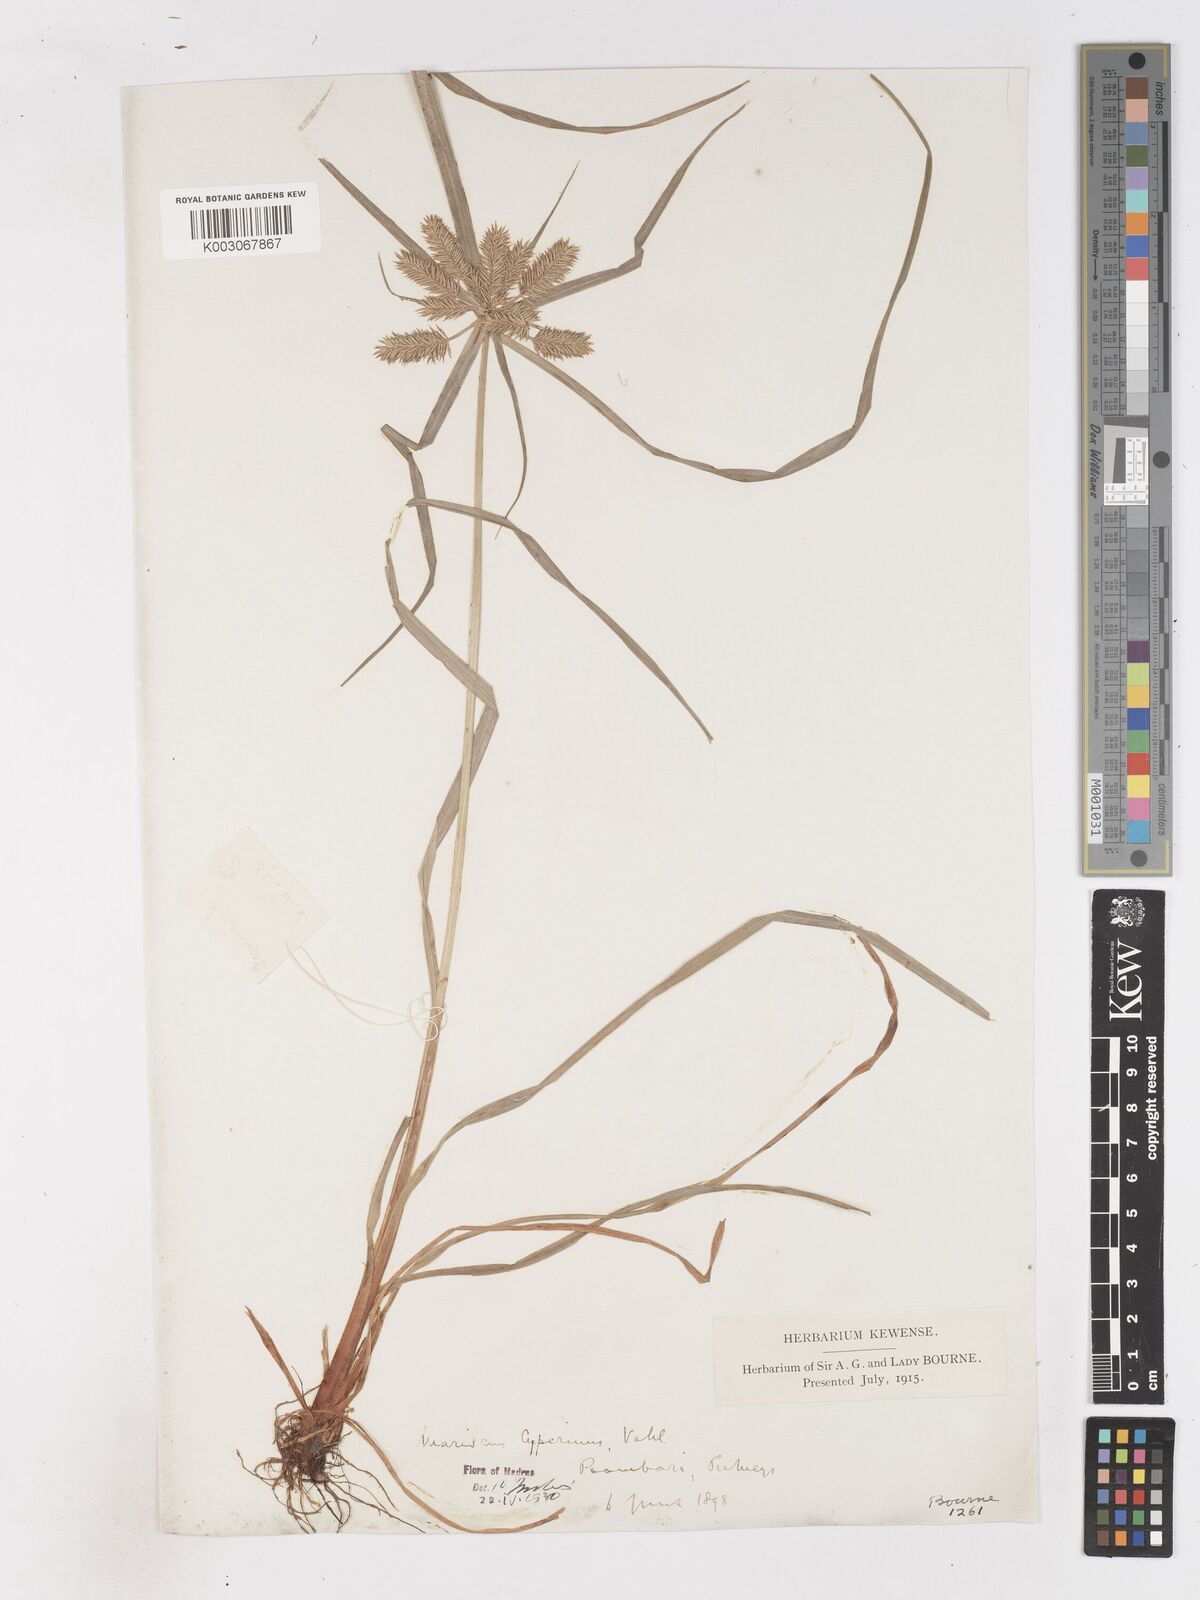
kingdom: Plantae
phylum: Tracheophyta
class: Liliopsida
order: Poales
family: Cyperaceae
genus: Cyperus
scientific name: Cyperus cyperinus
